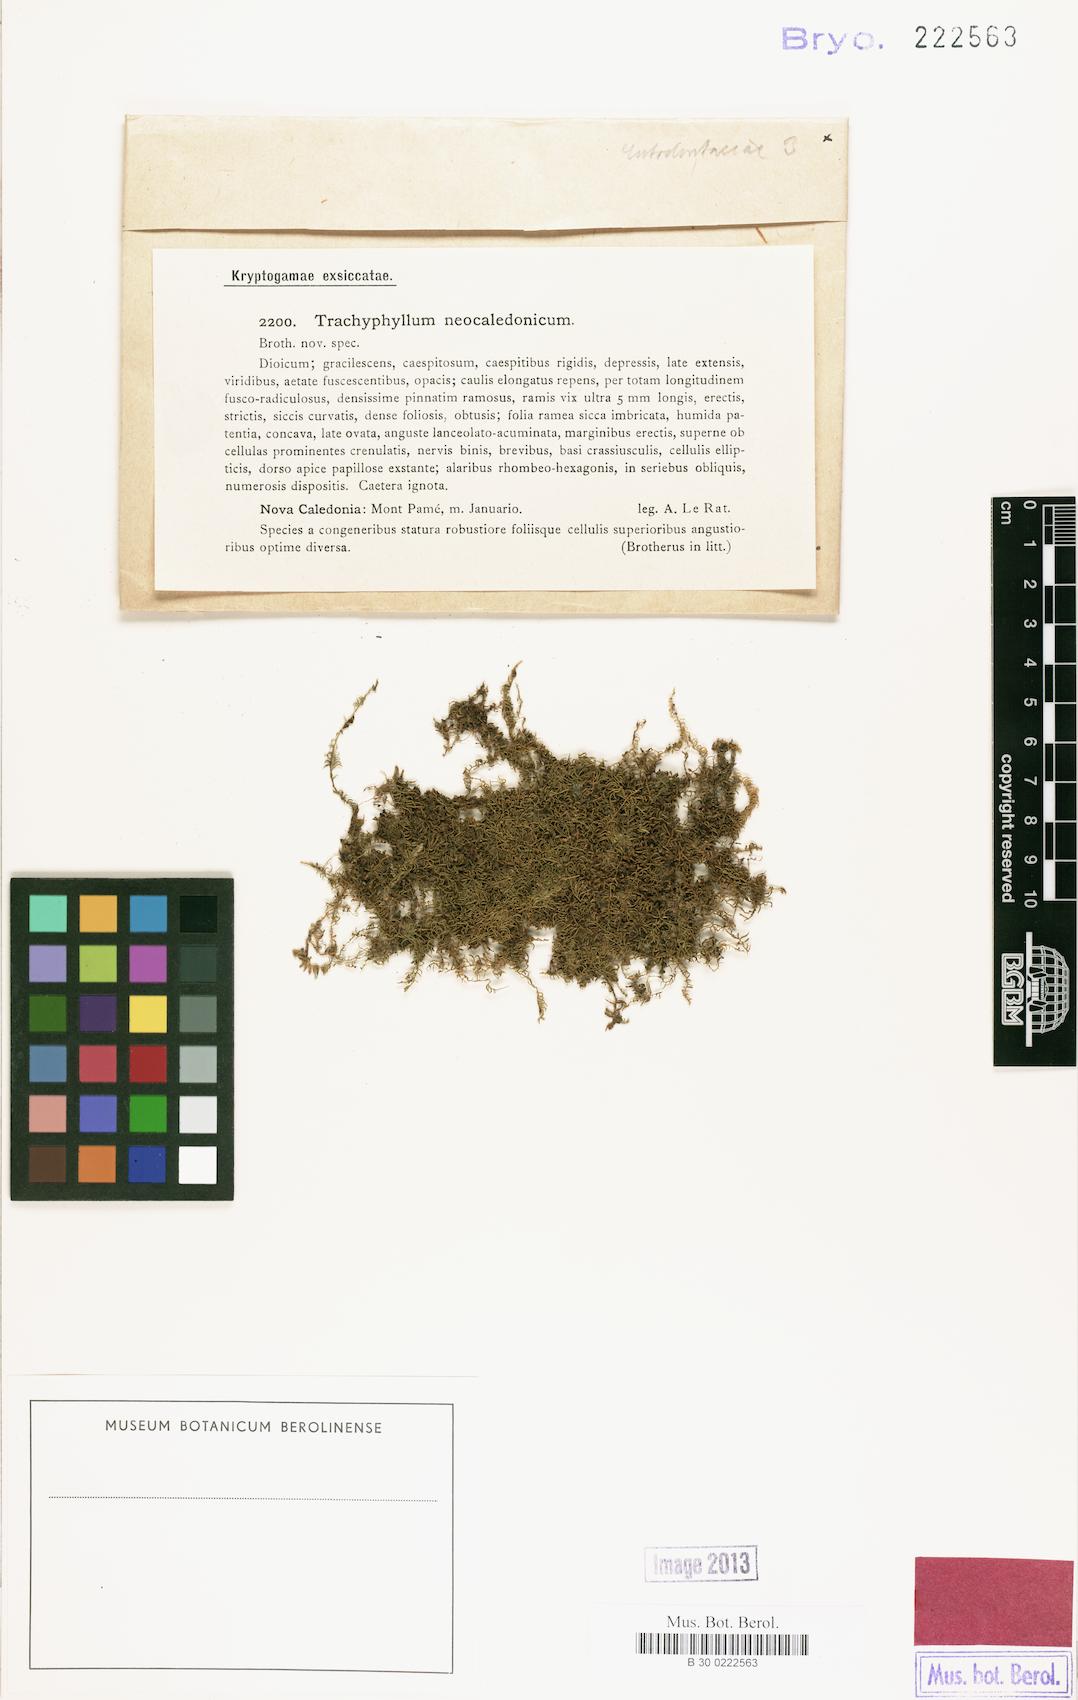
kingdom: Plantae
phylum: Bryophyta
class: Bryopsida
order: Hypnales
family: Pylaisiadelphaceae
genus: Trachyphyllum
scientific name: Trachyphyllum inflexum
